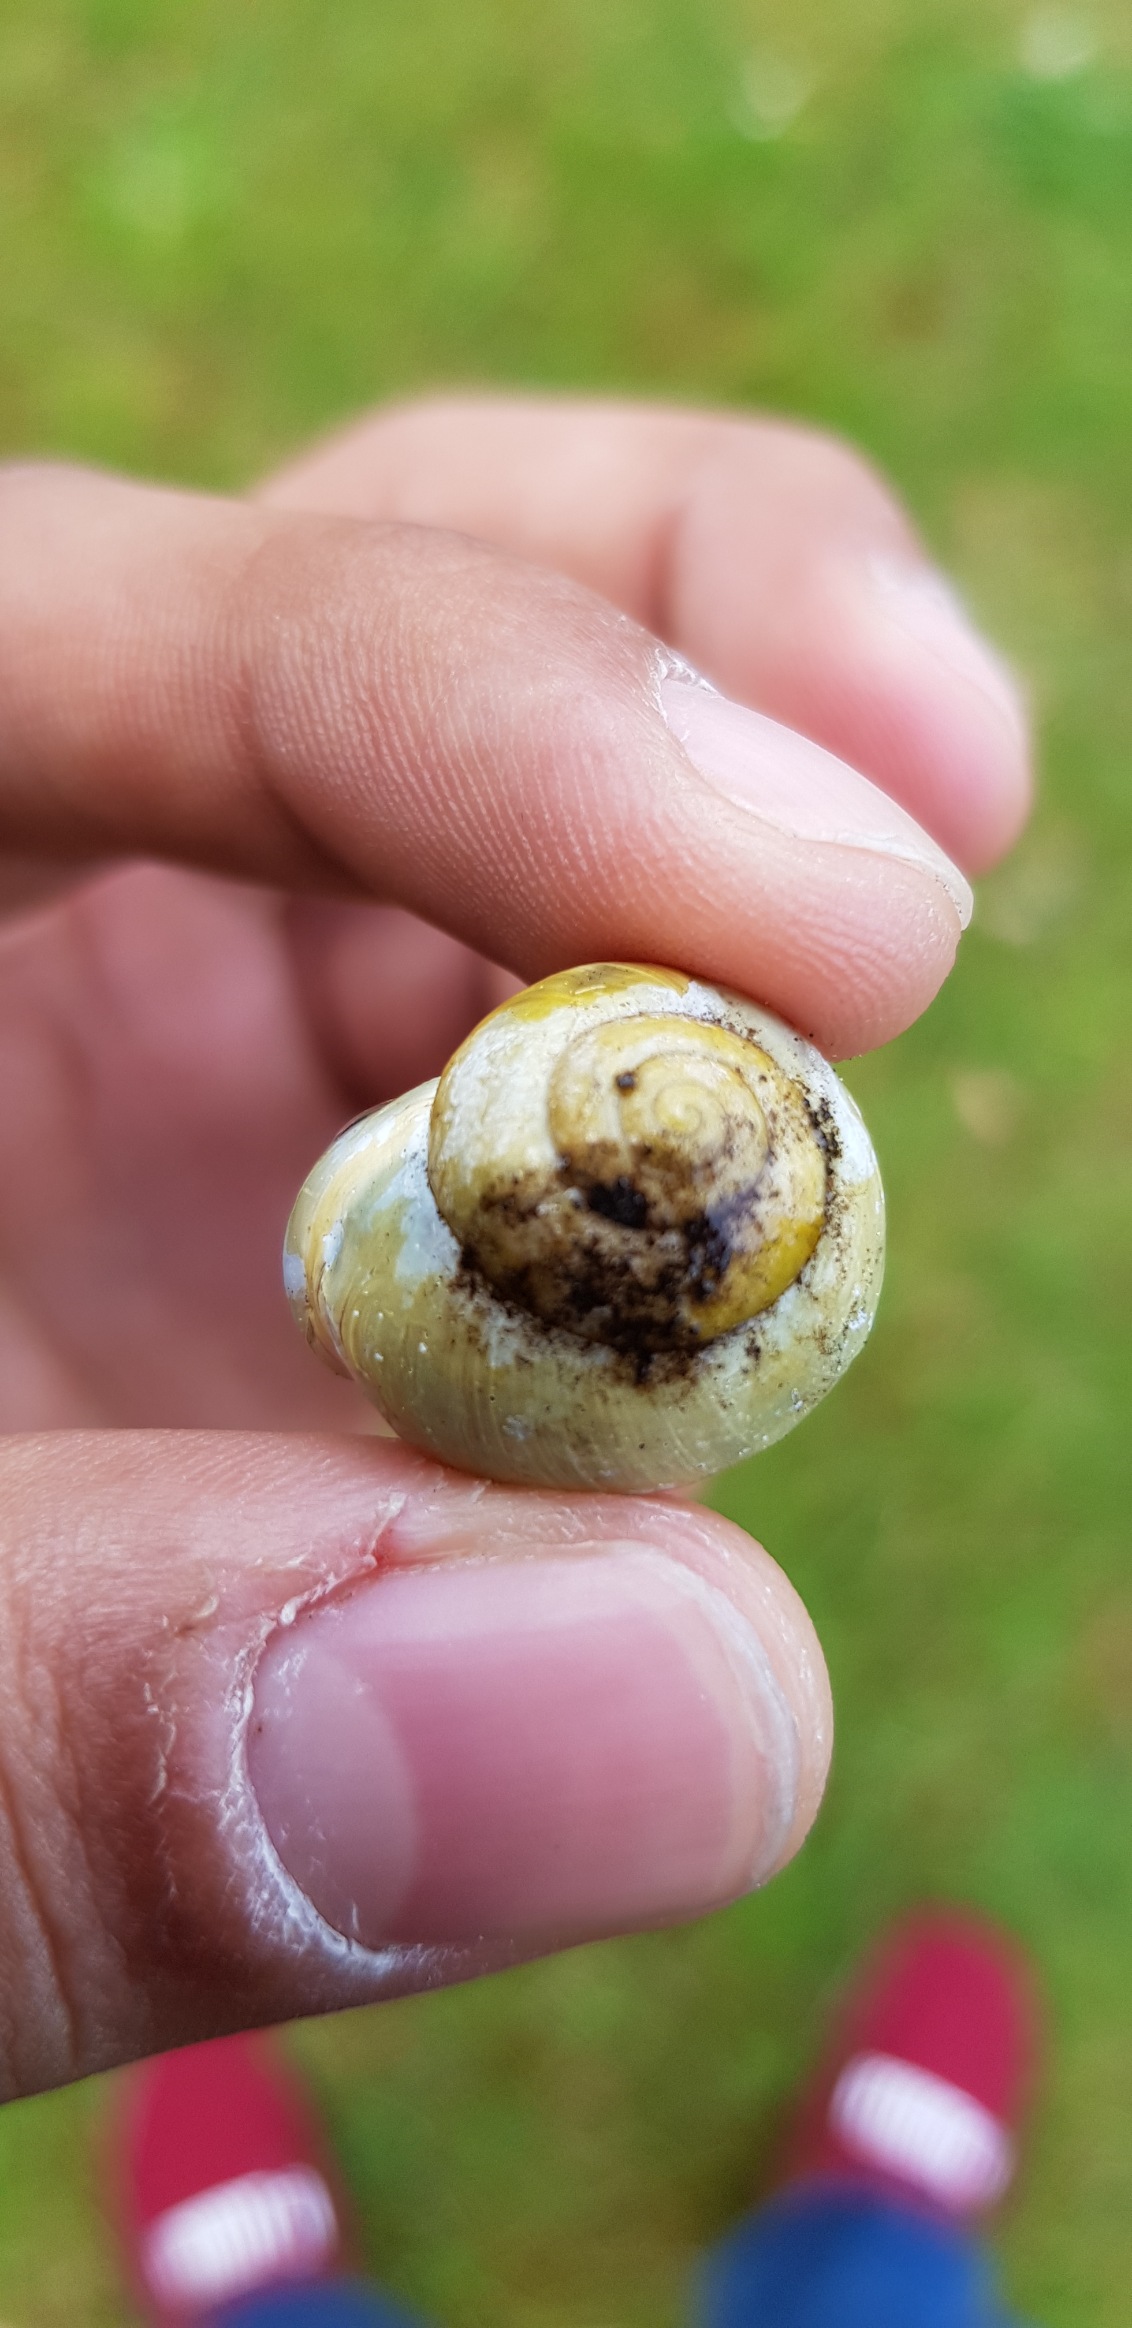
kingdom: Animalia
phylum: Mollusca
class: Gastropoda
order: Stylommatophora
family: Helicidae
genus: Cepaea
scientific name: Cepaea hortensis
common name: Havesnegl
